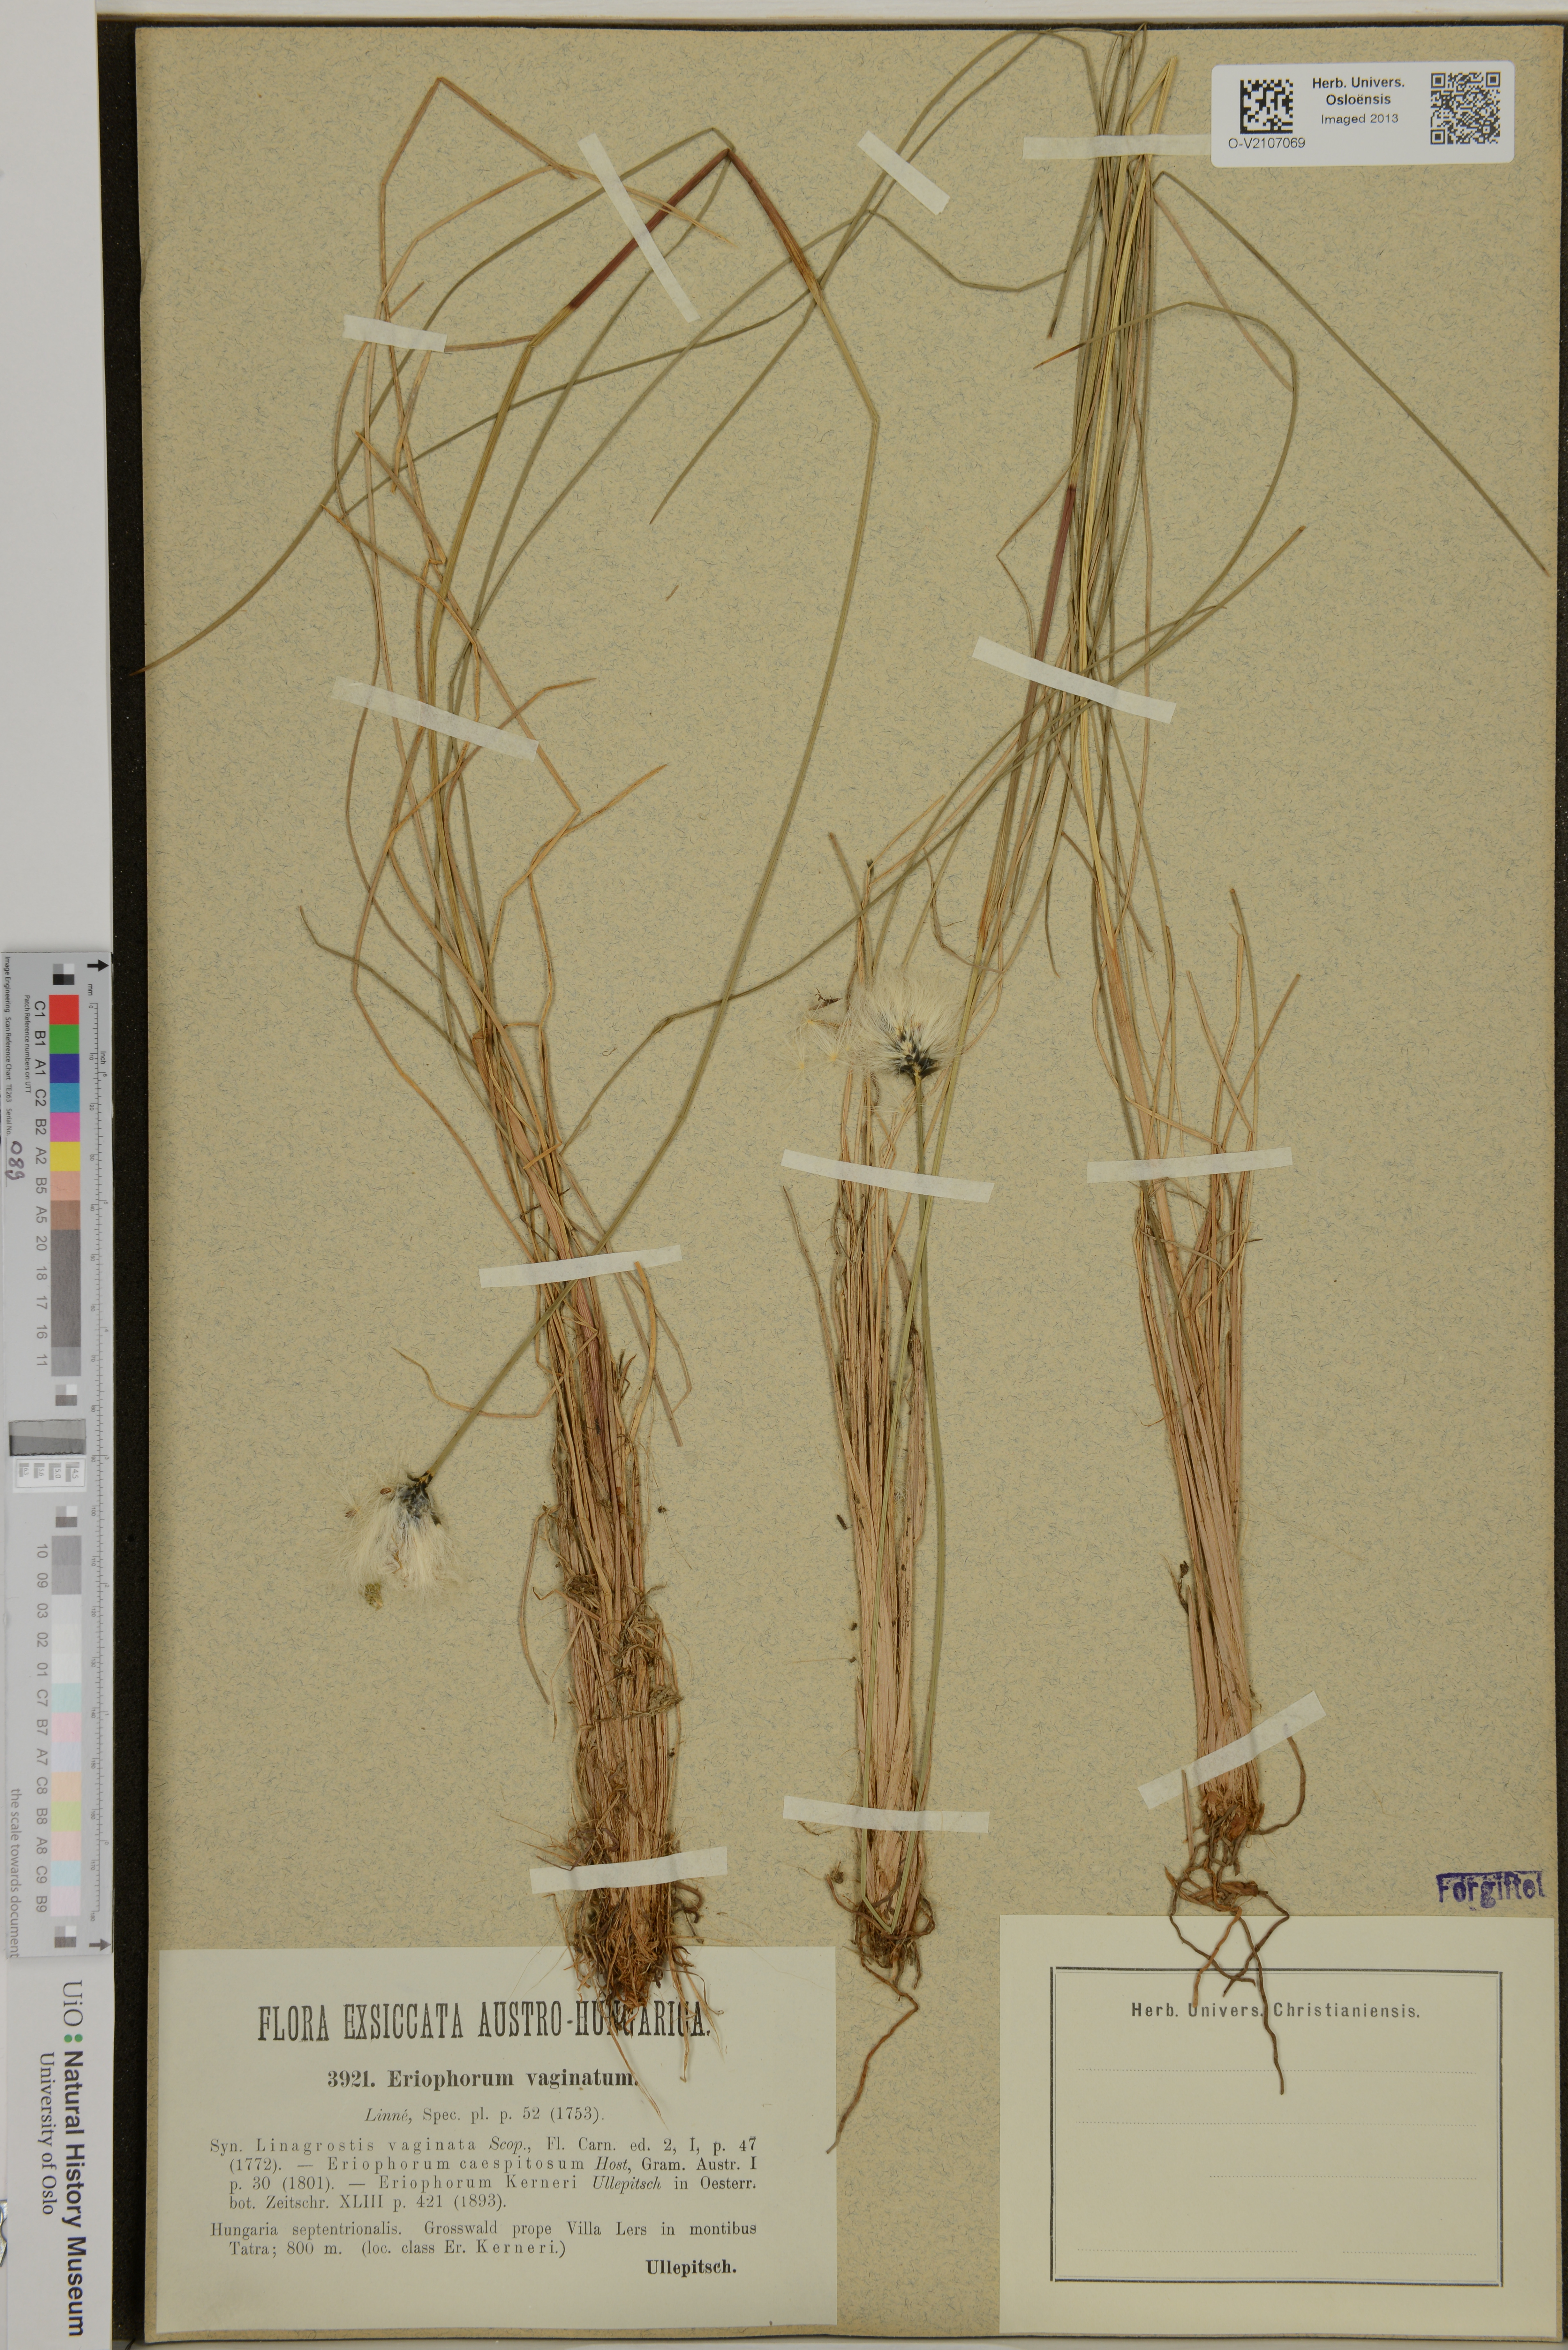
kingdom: Plantae
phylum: Tracheophyta
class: Liliopsida
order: Poales
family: Cyperaceae
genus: Eriophorum
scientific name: Eriophorum vaginatum
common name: Hare's-tail cottongrass
